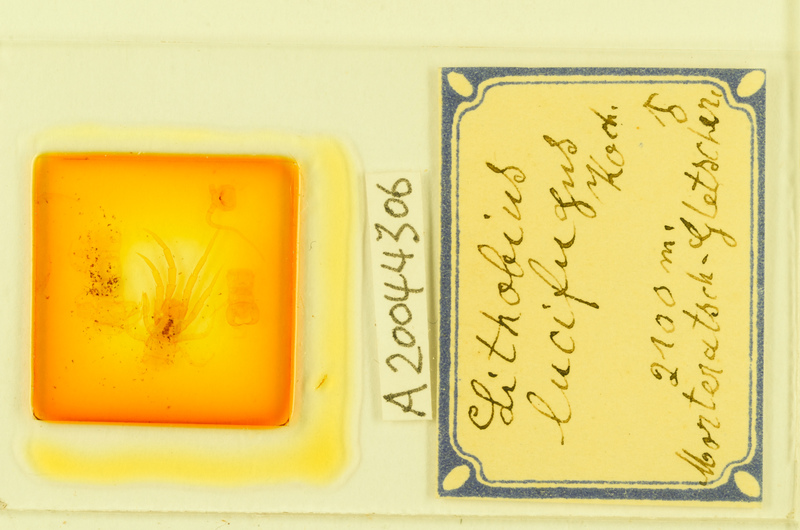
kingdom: Animalia
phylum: Arthropoda
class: Chilopoda
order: Lithobiomorpha
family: Lithobiidae
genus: Lithobius
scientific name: Lithobius lucifugus
